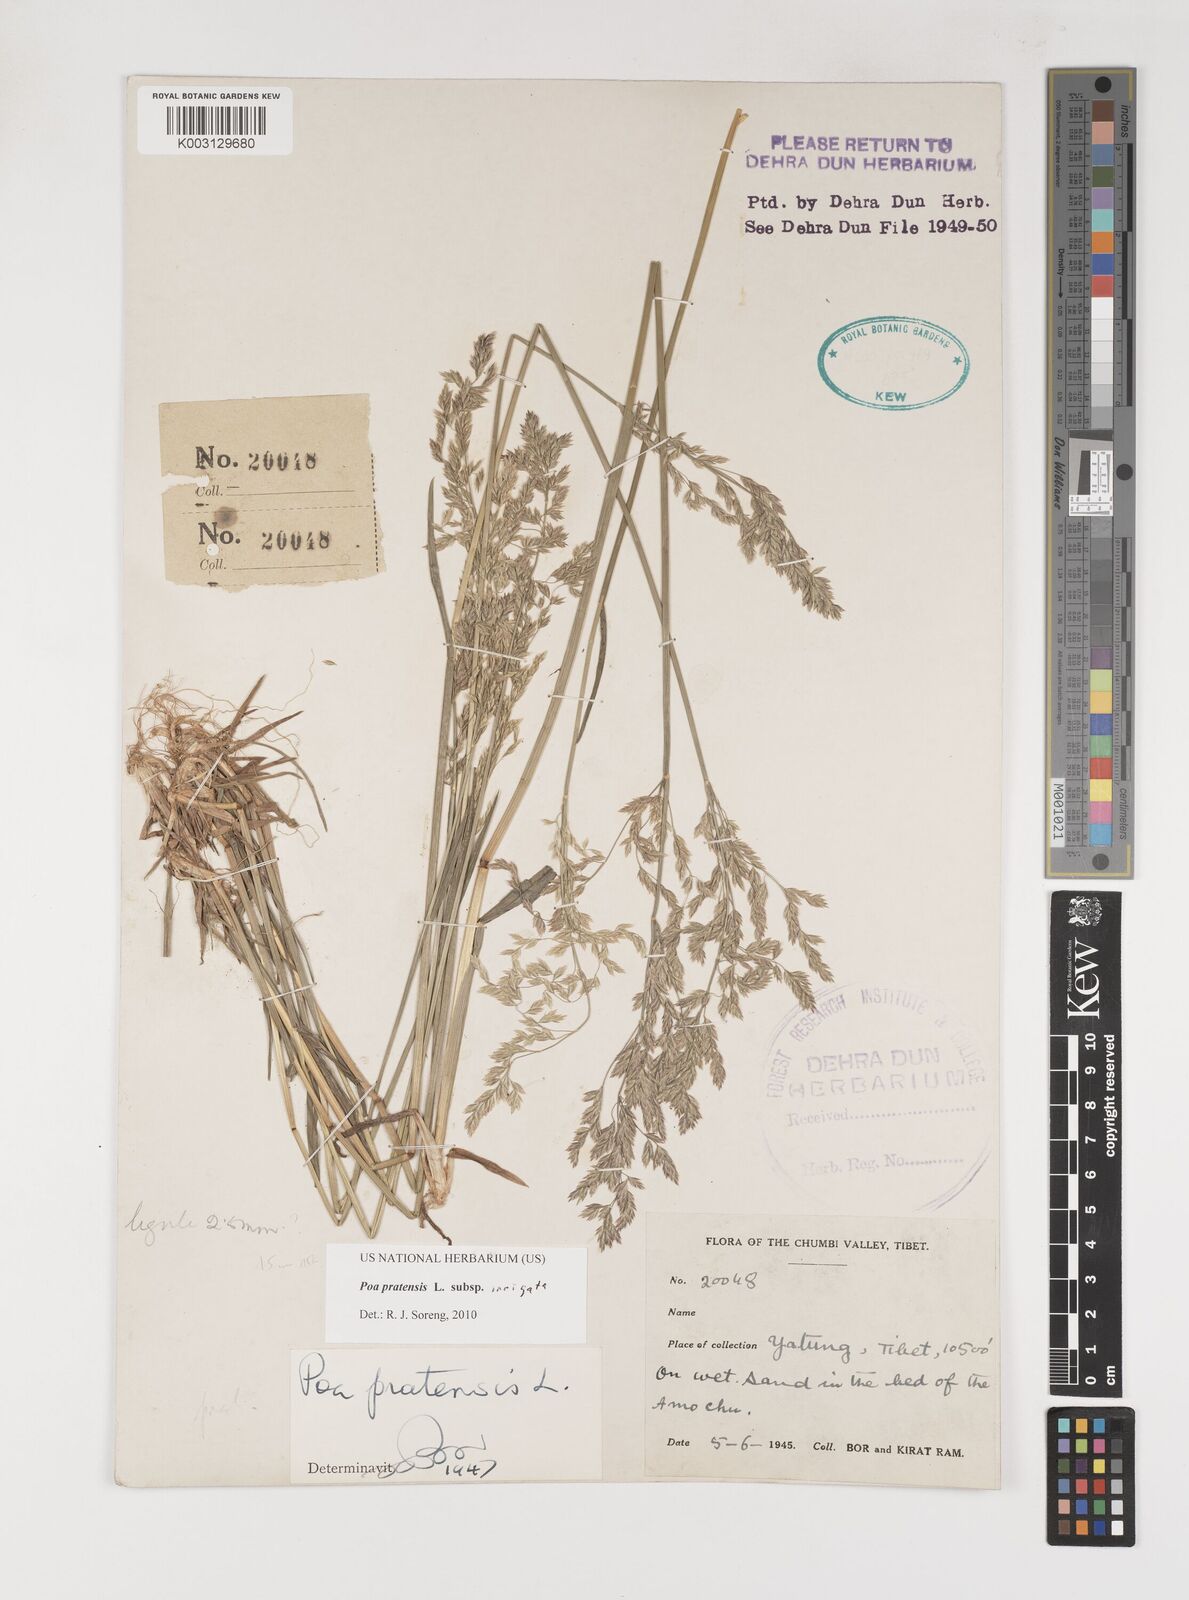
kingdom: Plantae
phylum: Tracheophyta
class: Liliopsida
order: Poales
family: Poaceae
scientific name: Poaceae
